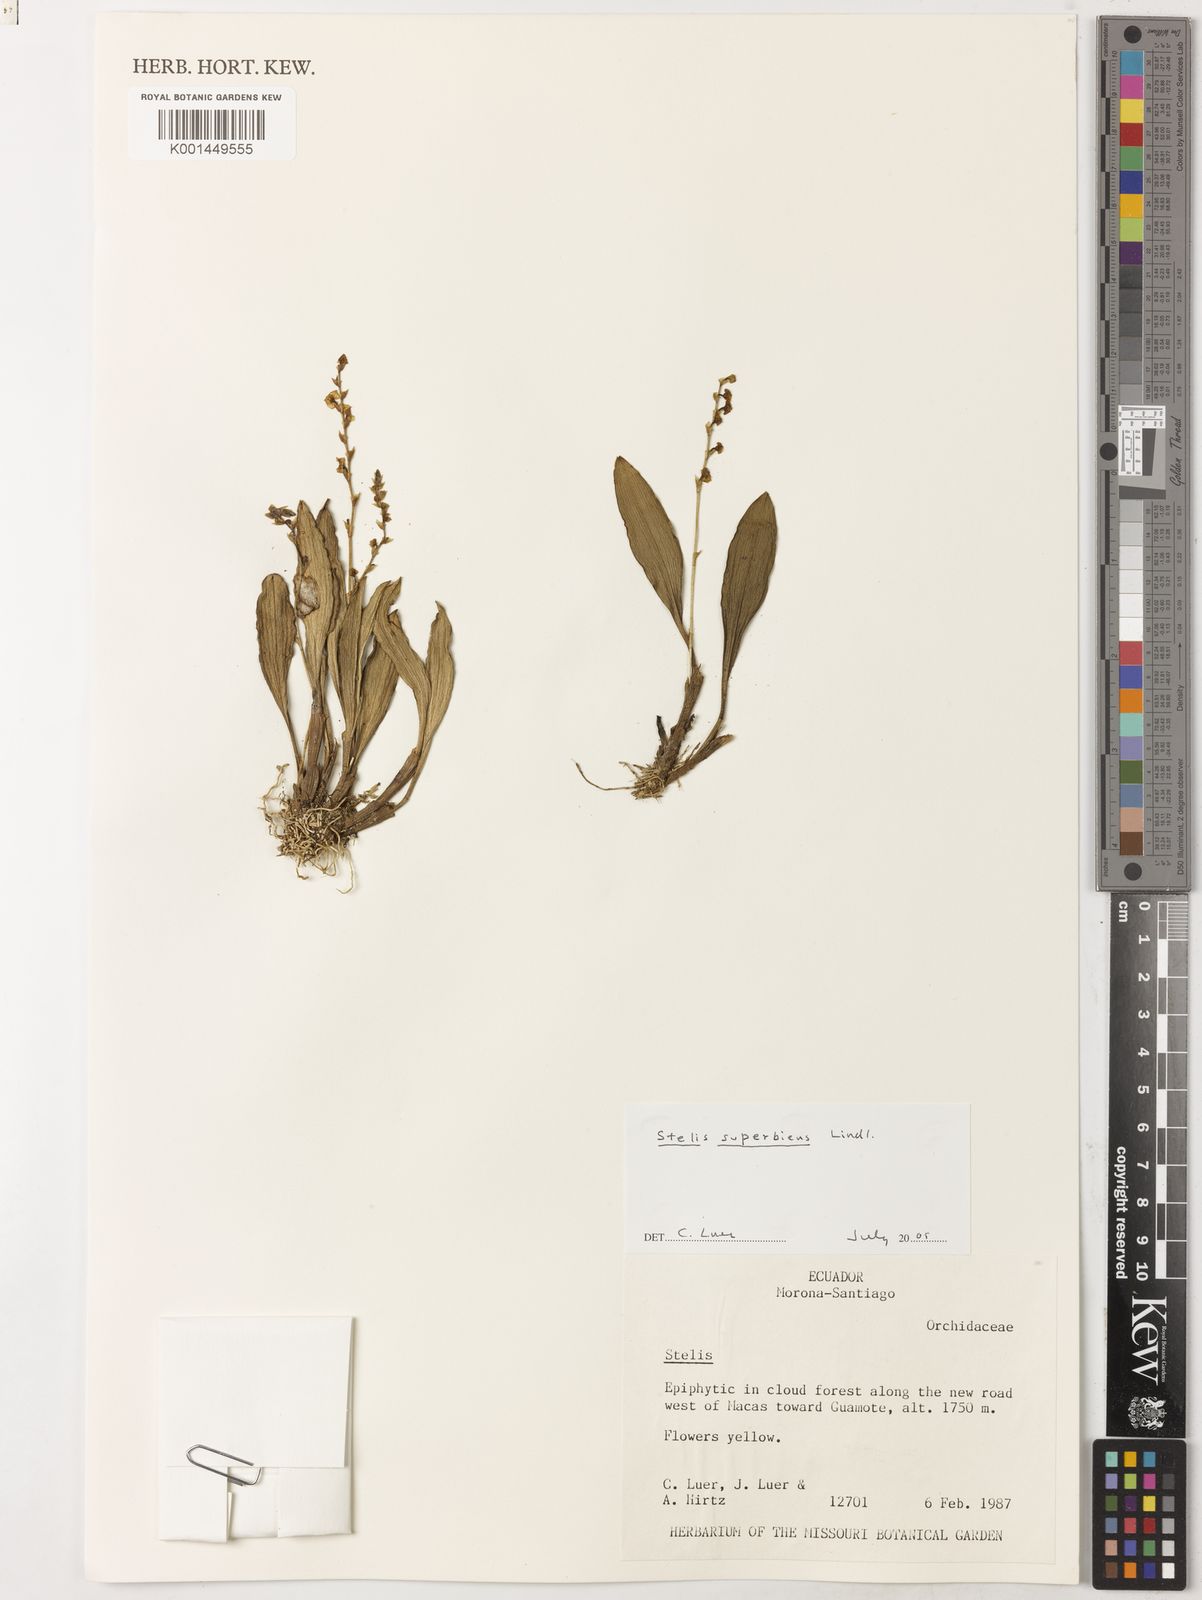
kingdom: Plantae
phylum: Tracheophyta
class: Liliopsida
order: Asparagales
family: Orchidaceae
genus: Stelis
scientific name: Stelis superbiens
